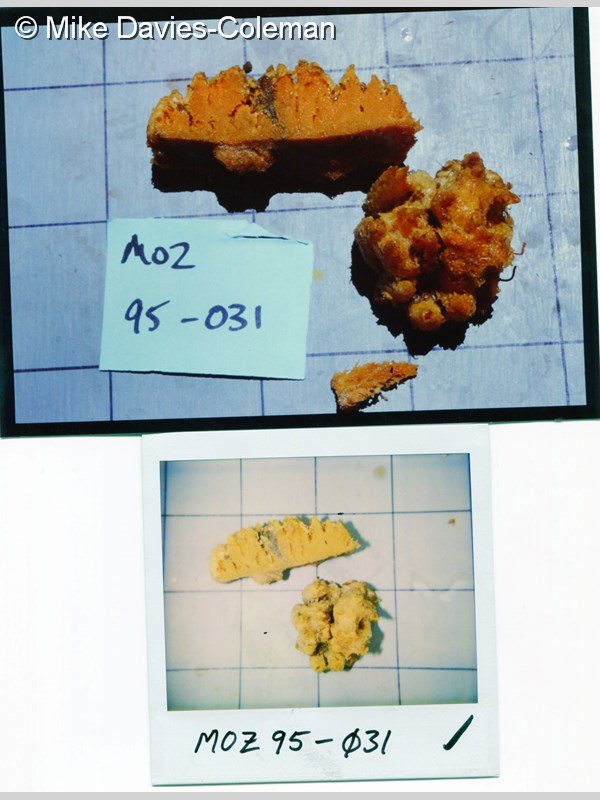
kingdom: Animalia
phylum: Porifera
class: Demospongiae
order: Axinellida
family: Axinellidae
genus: Axinella
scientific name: Axinella
